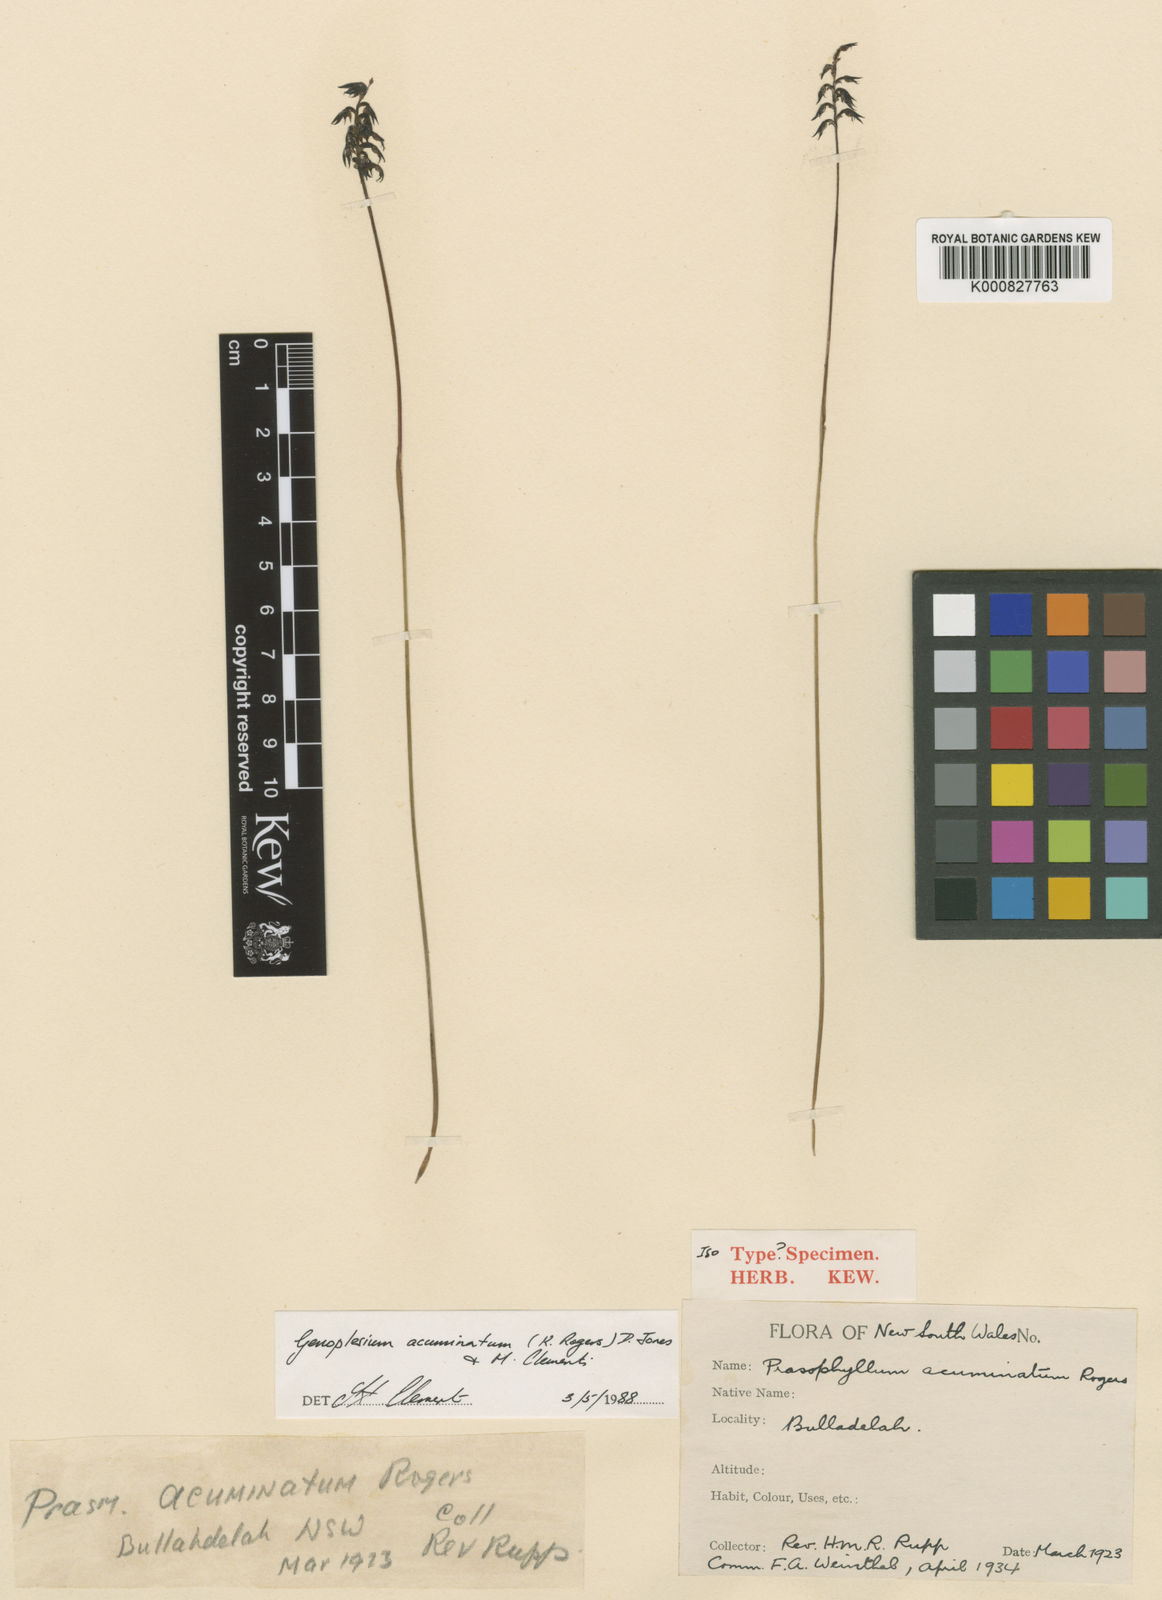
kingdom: Plantae
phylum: Tracheophyta
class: Liliopsida
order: Asparagales
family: Orchidaceae
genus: Genoplesium
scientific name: Genoplesium acuminatum
